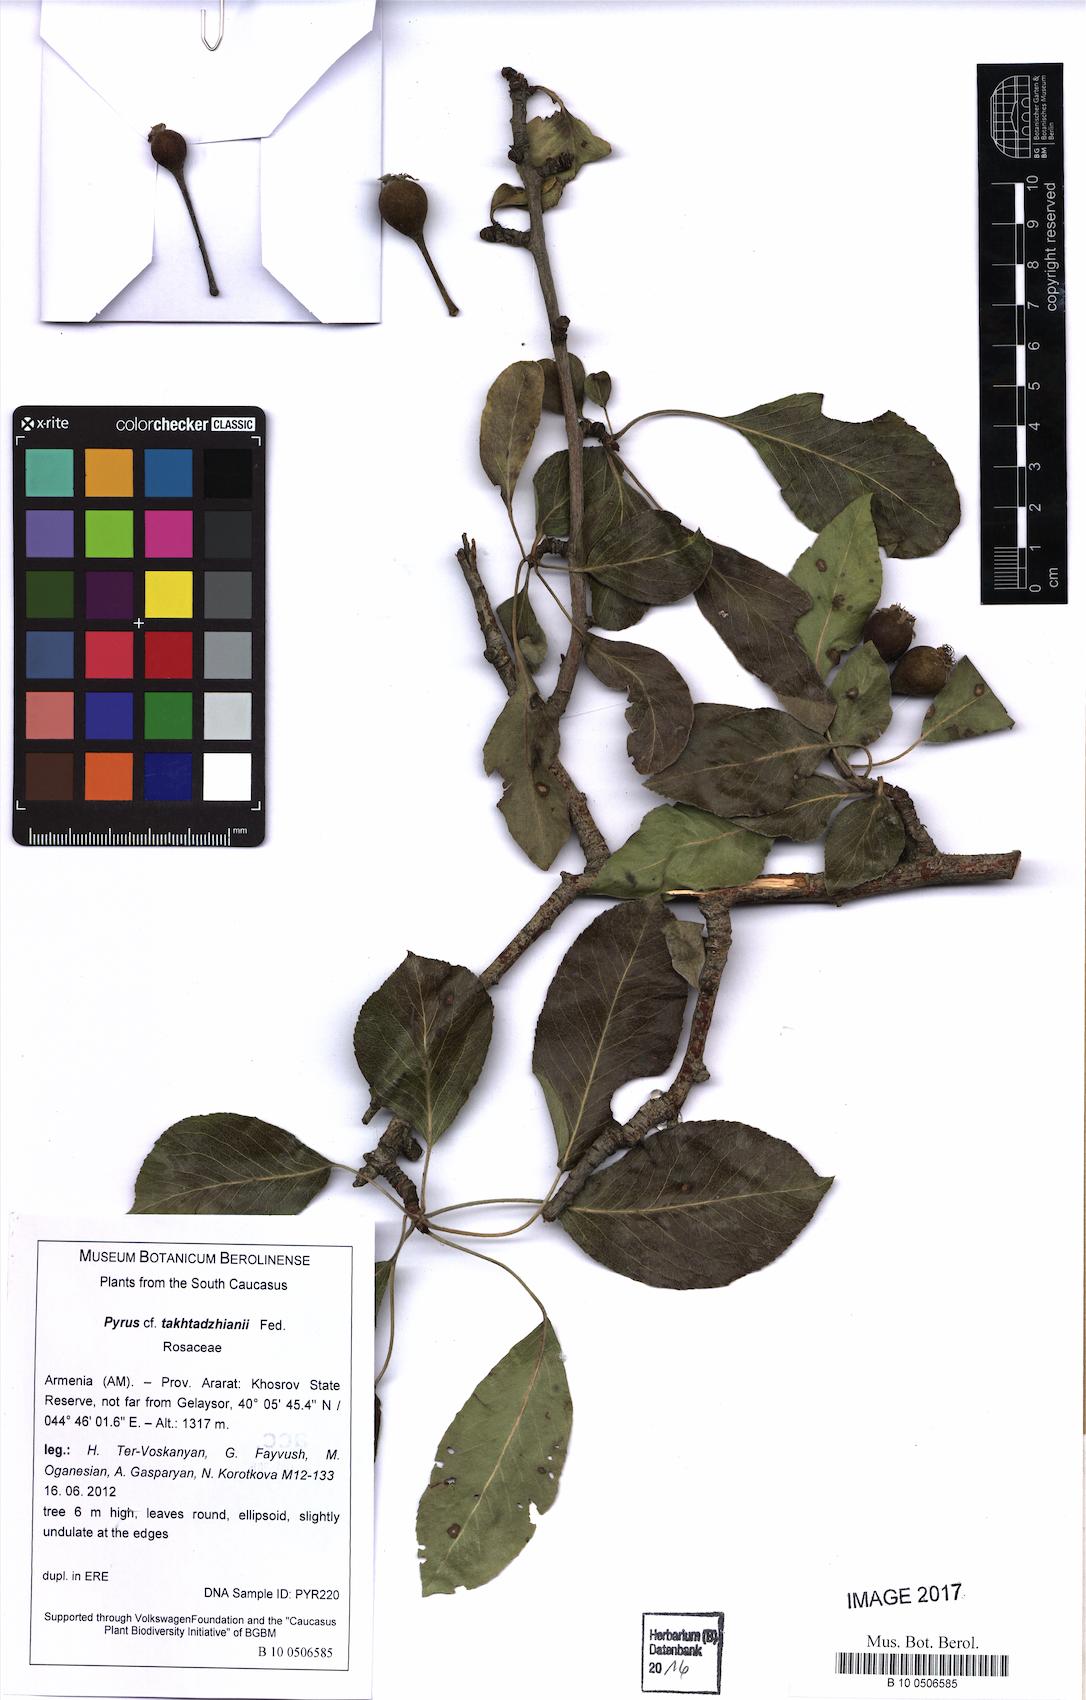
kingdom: Plantae
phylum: Tracheophyta
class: Magnoliopsida
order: Rosales
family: Rosaceae
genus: Pyrus
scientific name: Pyrus zangezura
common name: Zangezurian pear
